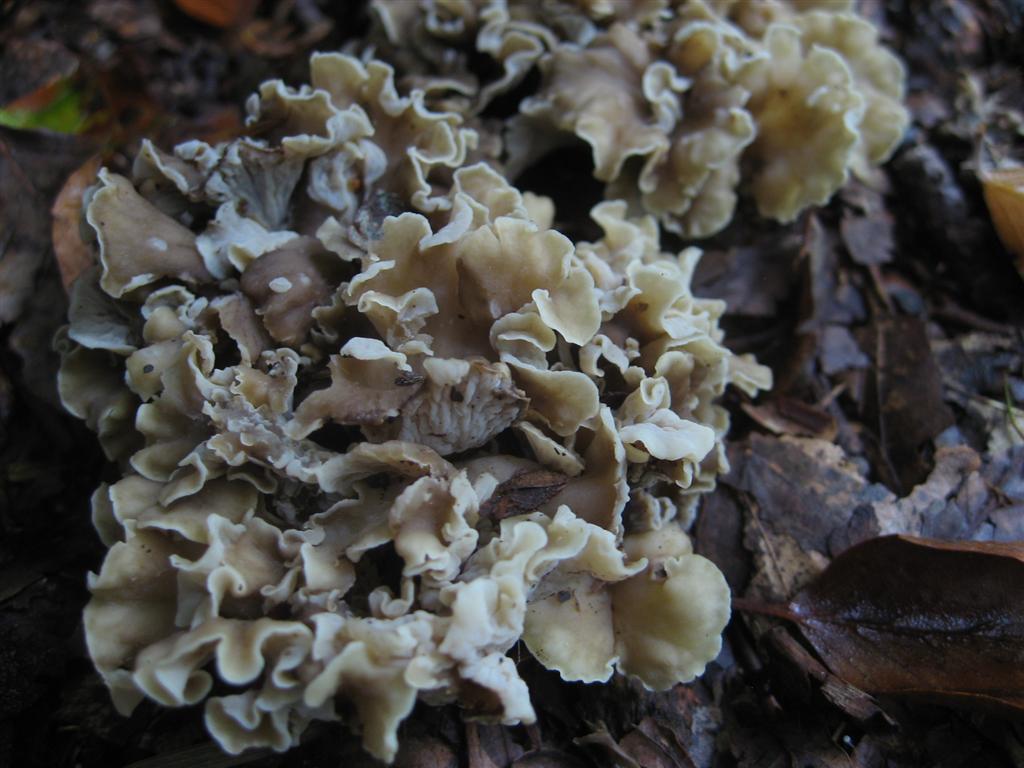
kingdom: Fungi
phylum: Basidiomycota
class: Agaricomycetes
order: Cantharellales
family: Hydnaceae
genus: Craterellus
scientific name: Craterellus undulatus
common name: liden kantarel
